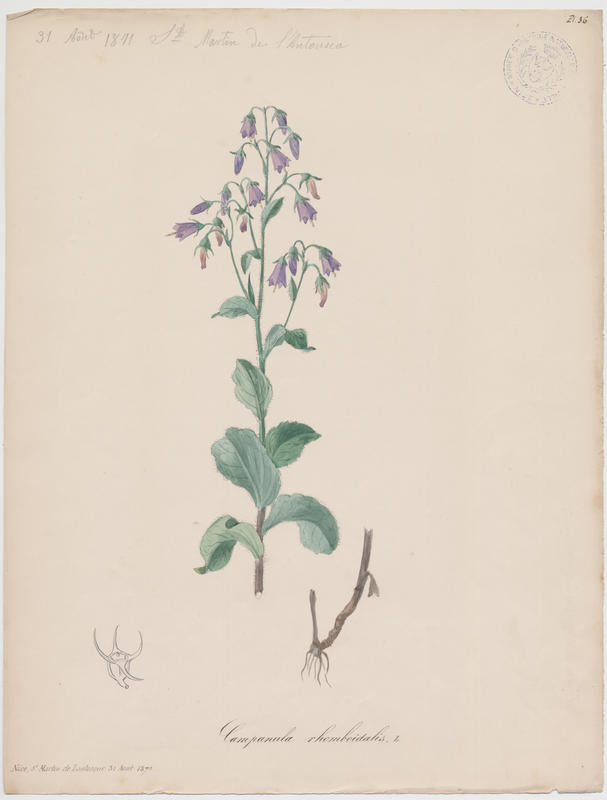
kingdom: Plantae
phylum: Tracheophyta
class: Magnoliopsida
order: Asterales
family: Campanulaceae
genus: Campanula
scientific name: Campanula rhomboidalis
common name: Broad-leaved harebell
